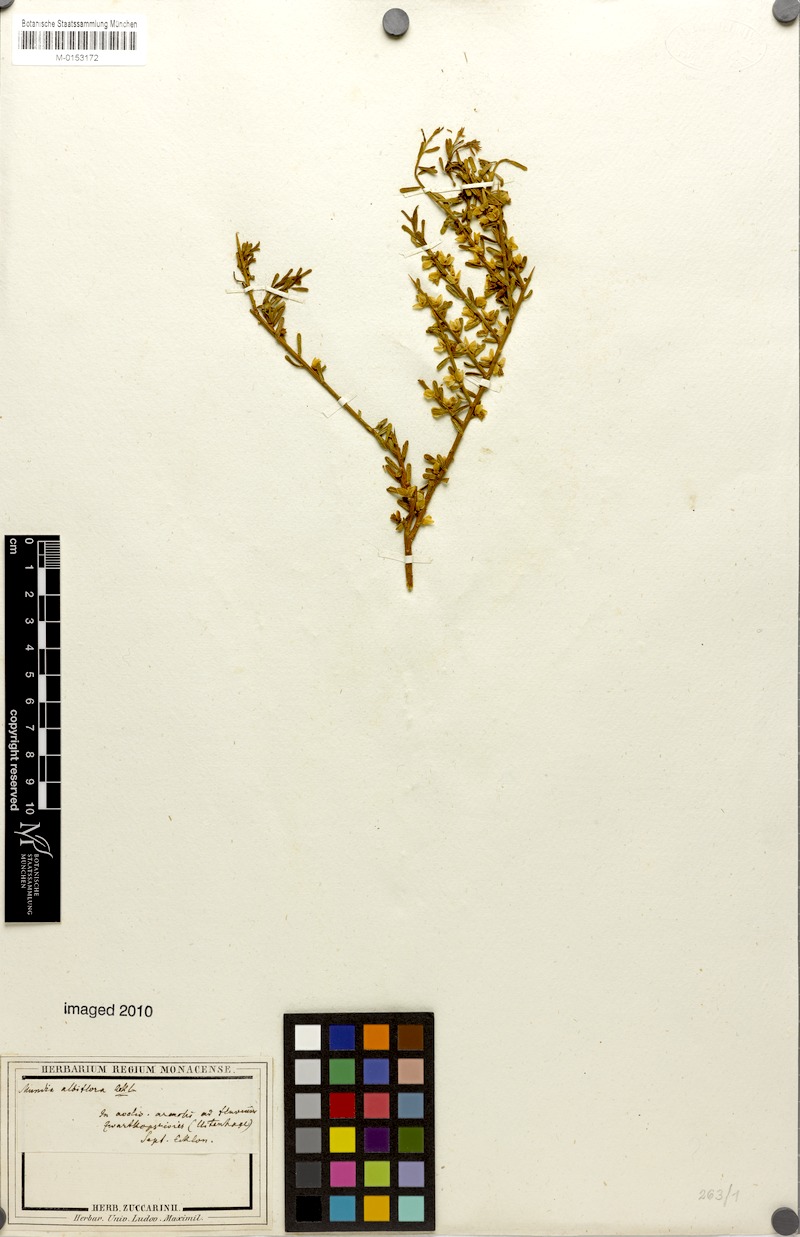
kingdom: Plantae
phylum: Tracheophyta
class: Magnoliopsida
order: Fabales
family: Polygalaceae
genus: Mundtia
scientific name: Mundtia spinosa
